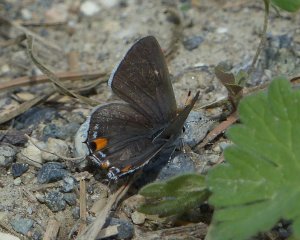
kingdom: Animalia
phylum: Arthropoda
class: Insecta
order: Lepidoptera
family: Lycaenidae
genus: Strymon
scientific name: Strymon melinus
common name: Gray Hairstreak
